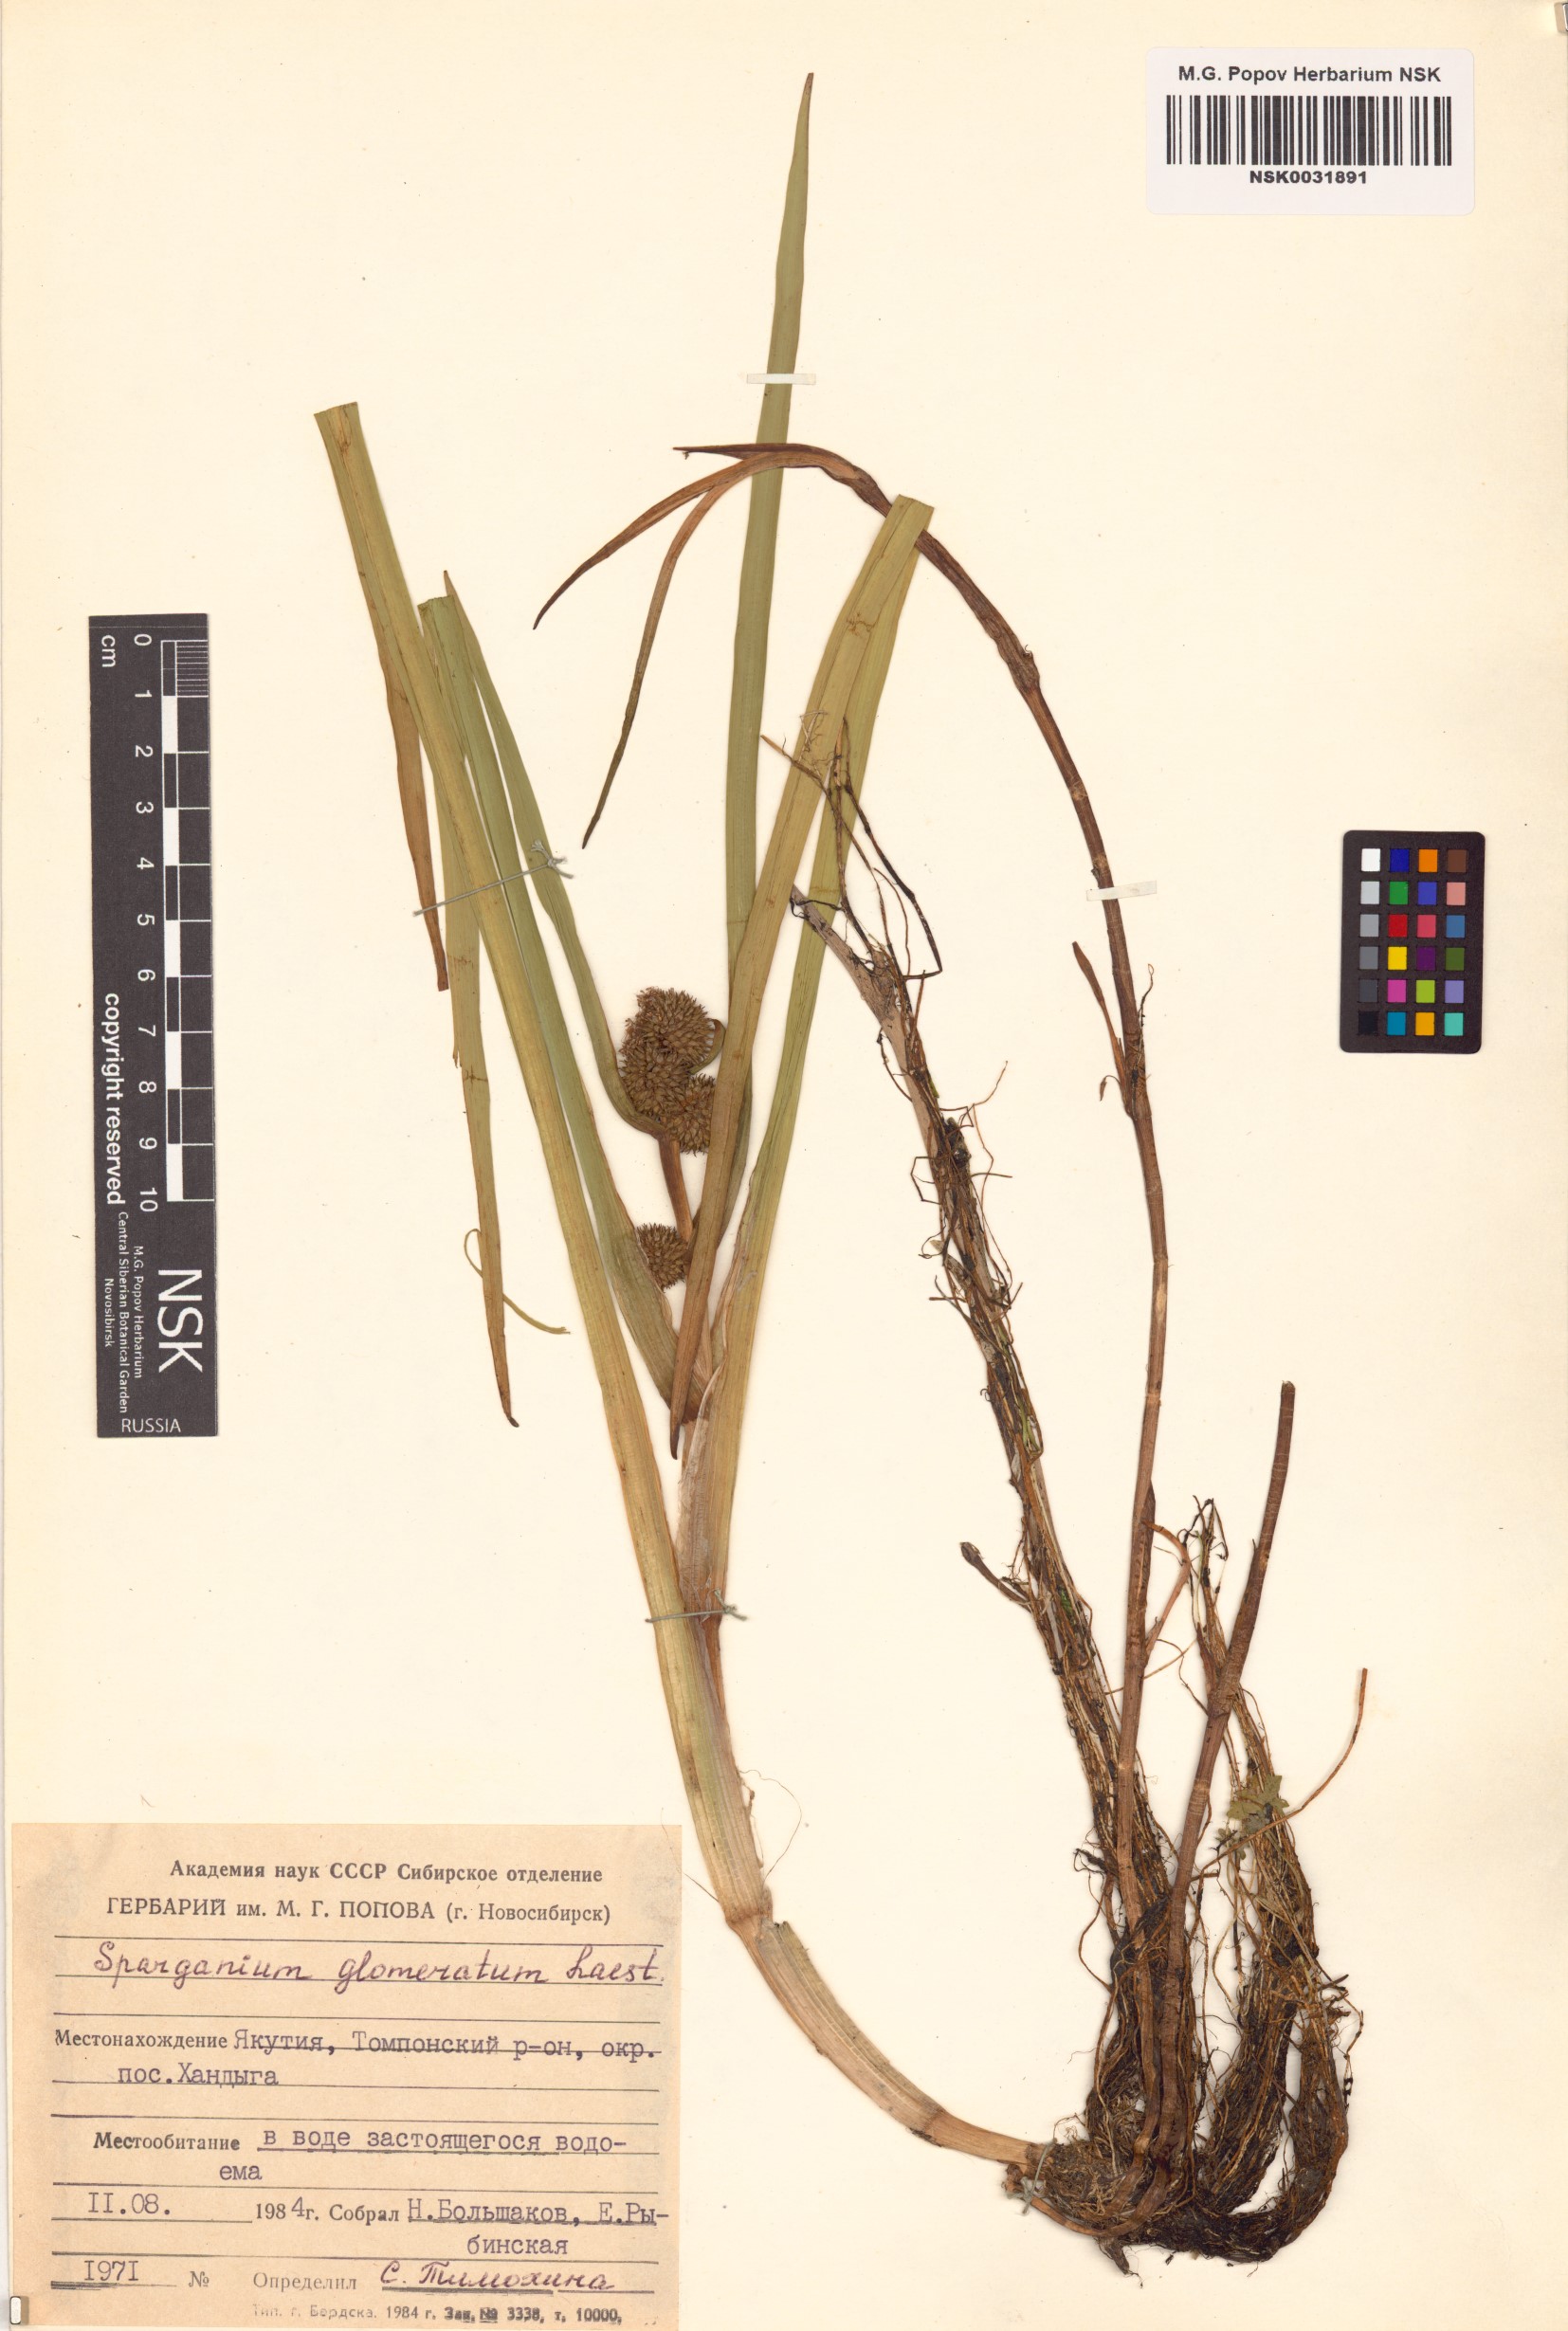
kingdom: Plantae
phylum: Tracheophyta
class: Liliopsida
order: Poales
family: Typhaceae
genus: Sparganium
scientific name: Sparganium glomeratum
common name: Clustered burreed
